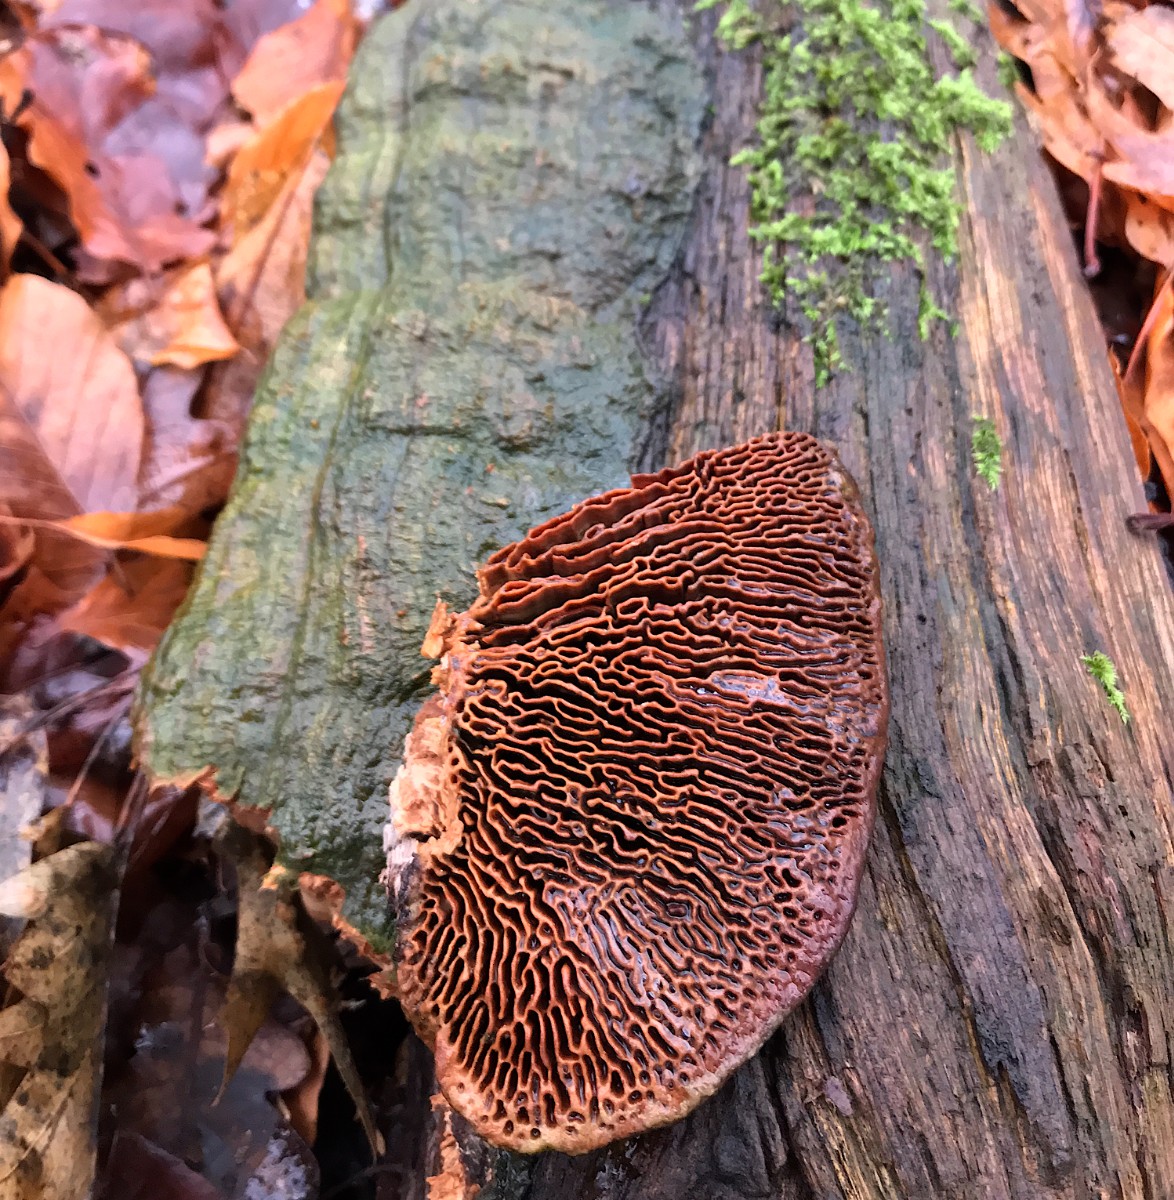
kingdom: Fungi
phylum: Basidiomycota
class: Agaricomycetes
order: Polyporales
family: Fomitopsidaceae
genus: Daedalea
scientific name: Daedalea quercina
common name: ege-labyrintsvamp
